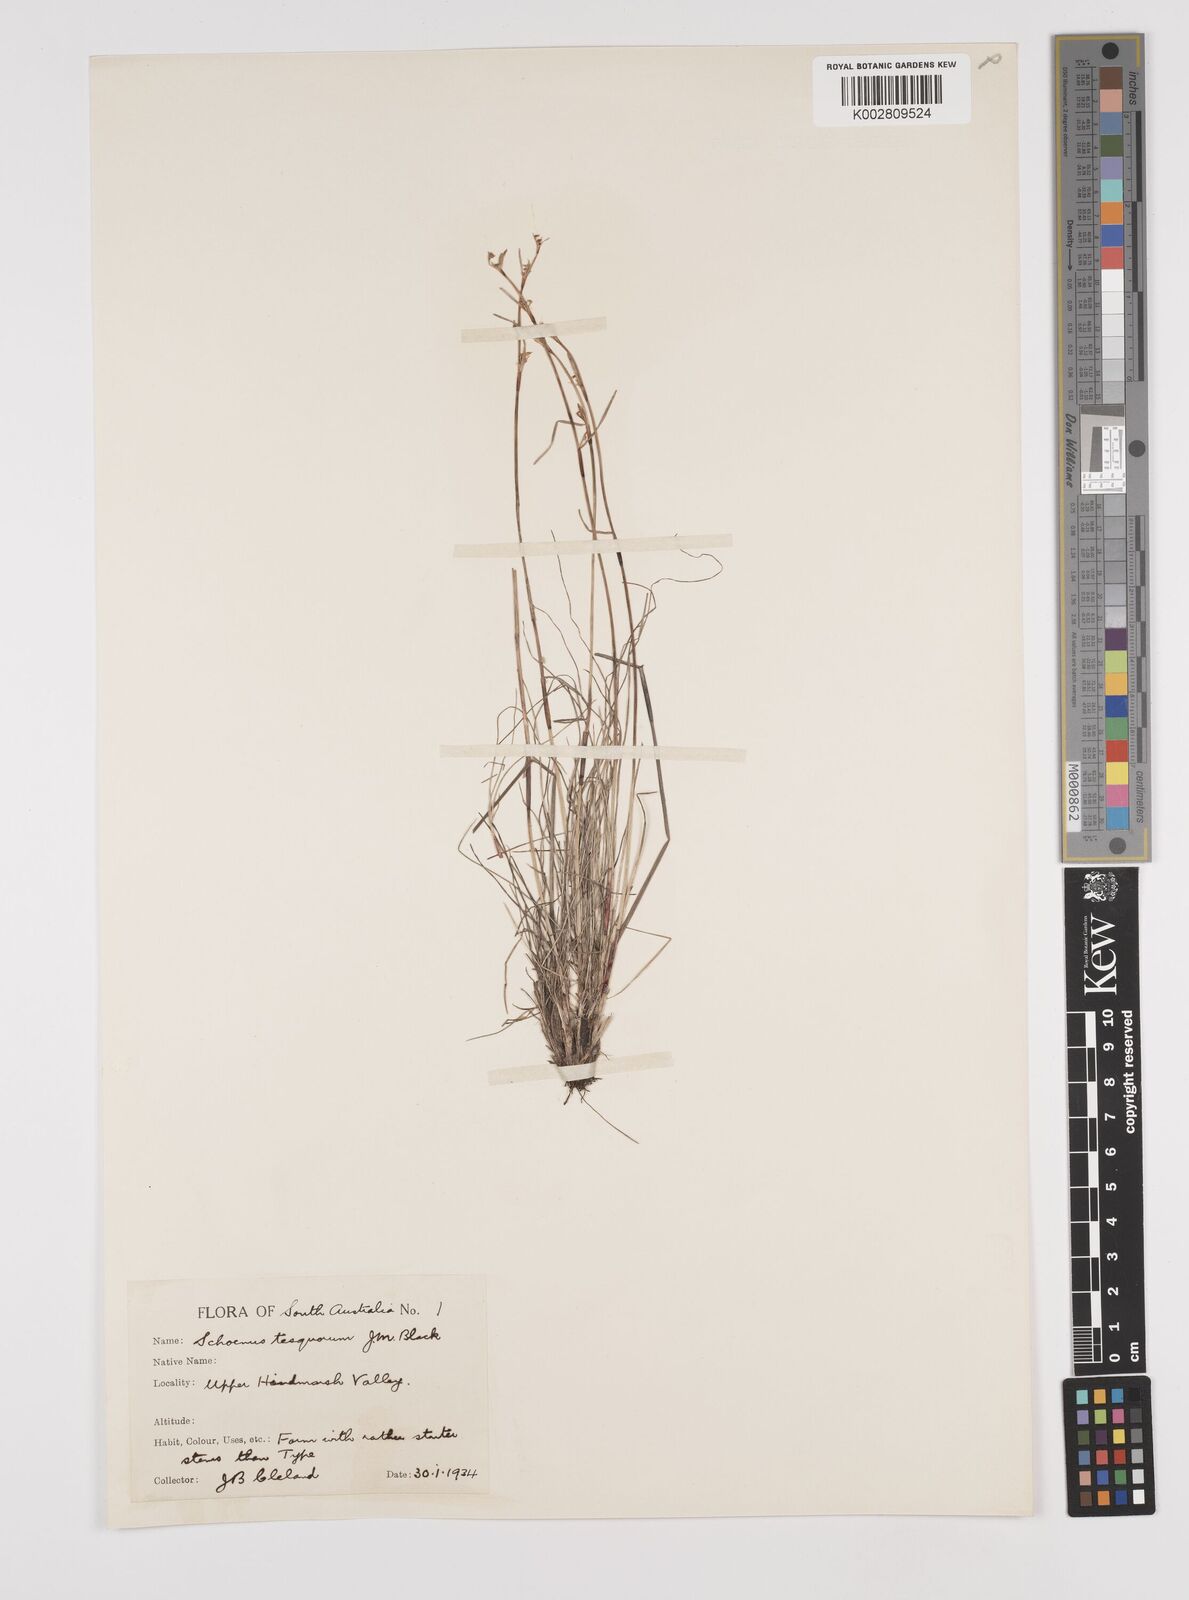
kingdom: Plantae
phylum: Tracheophyta
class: Liliopsida
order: Poales
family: Cyperaceae
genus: Schoenus
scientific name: Schoenus tesquorum
